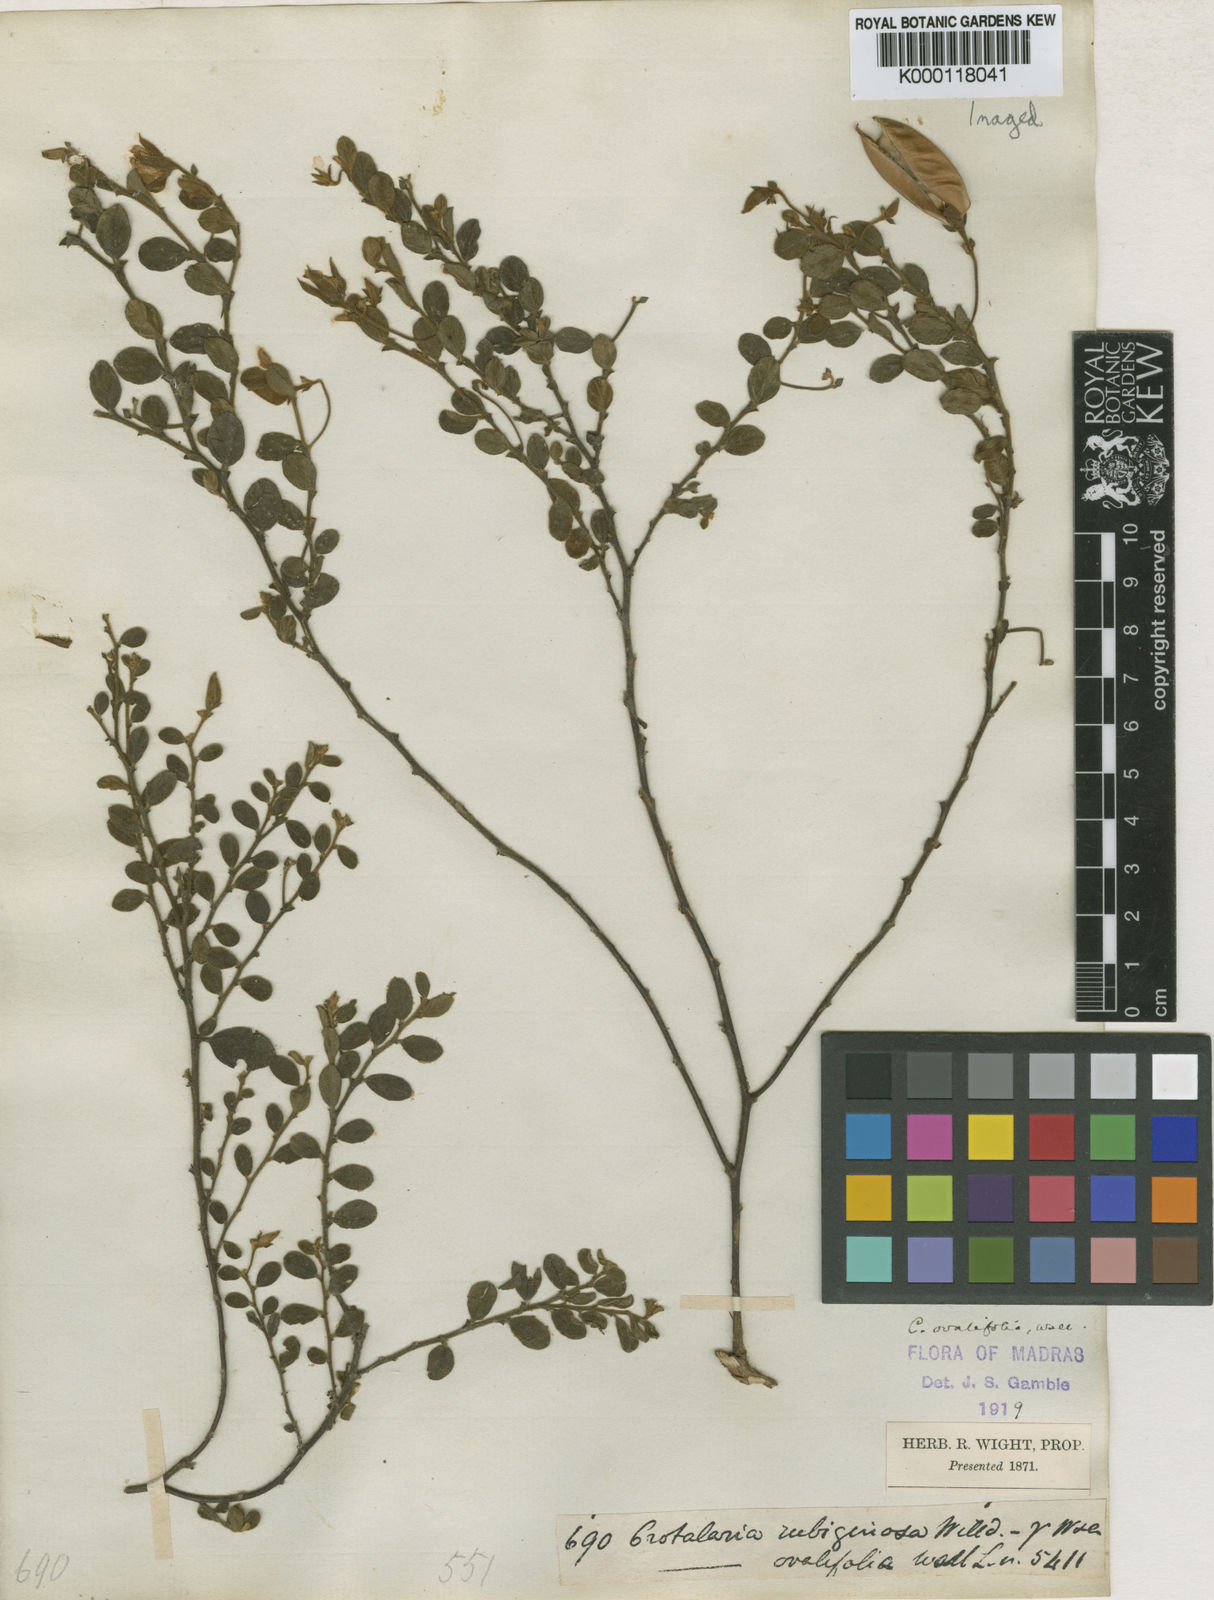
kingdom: Plantae
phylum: Tracheophyta
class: Magnoliopsida
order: Fabales
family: Fabaceae
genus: Crotalaria
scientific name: Crotalaria
